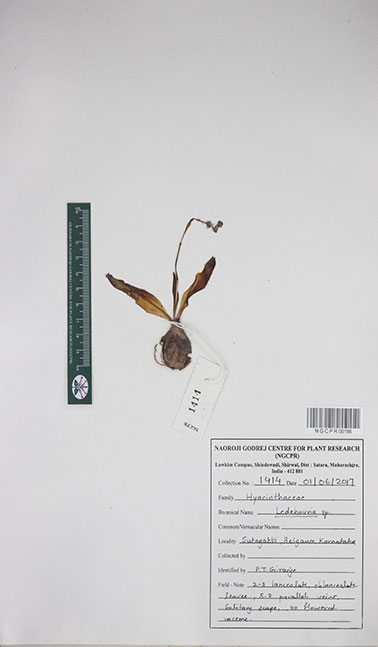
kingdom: Plantae
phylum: Tracheophyta
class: Liliopsida
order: Asparagales
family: Asparagaceae
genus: Ledebouria
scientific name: Ledebouria
